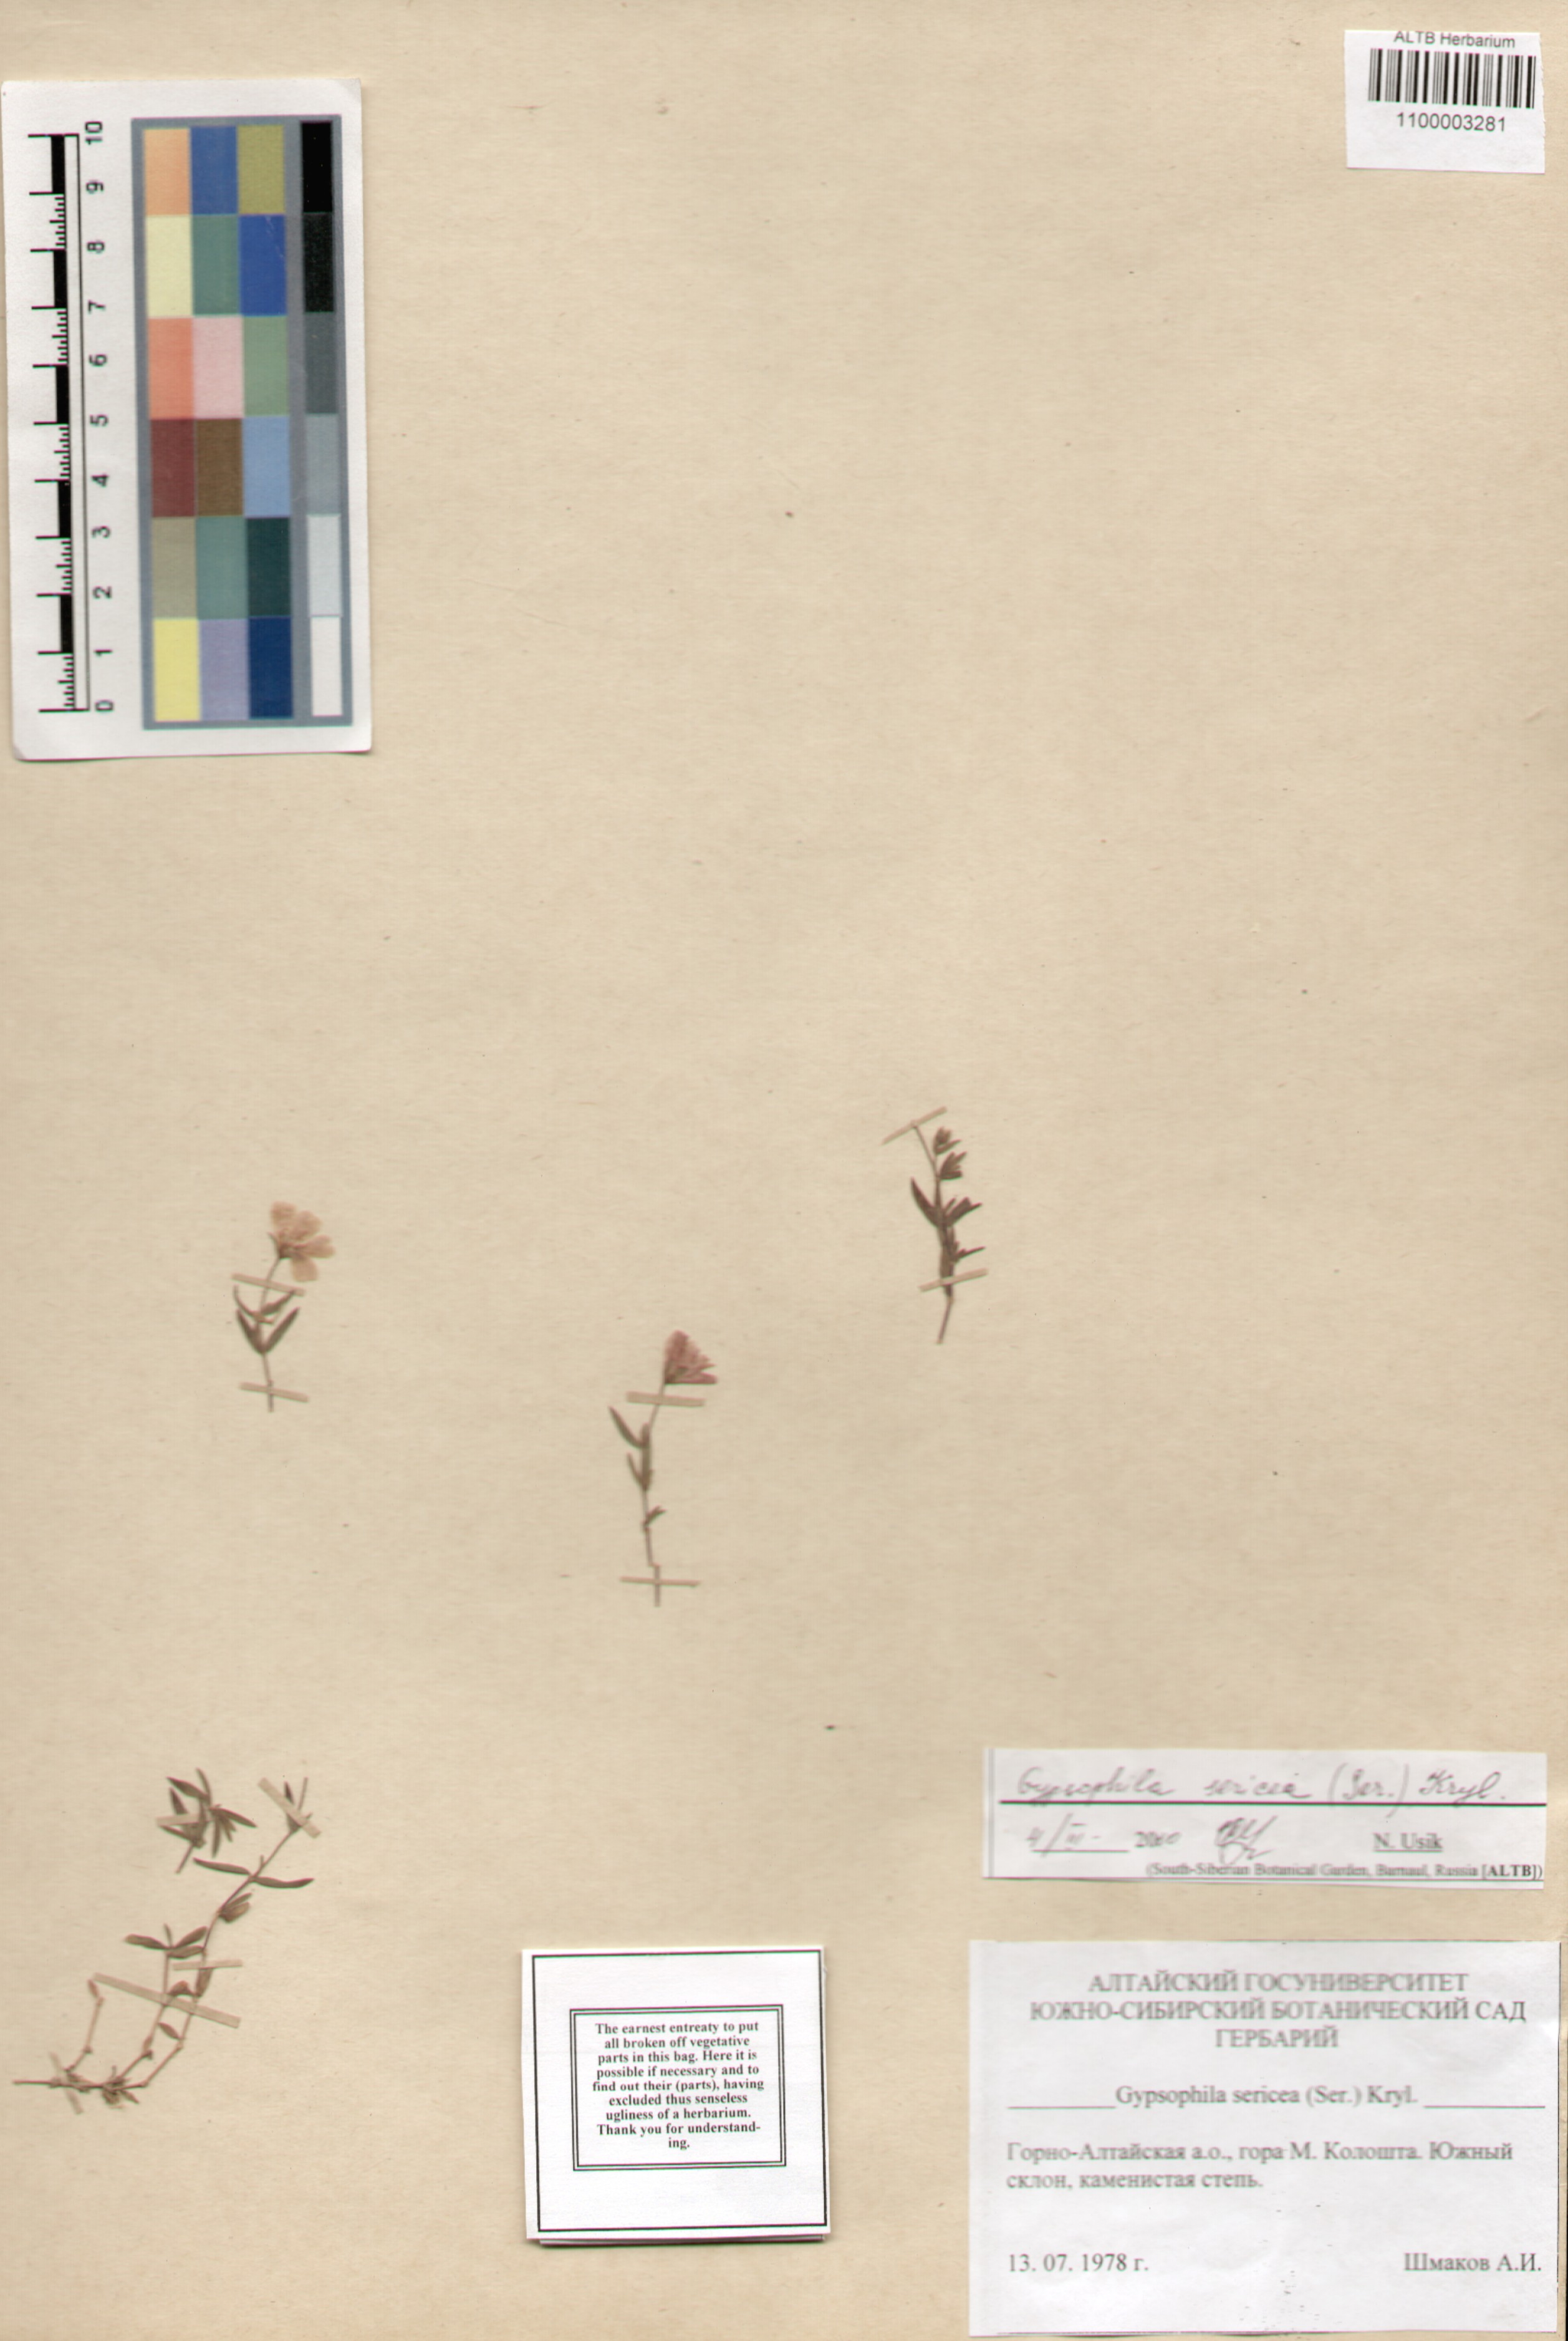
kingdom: Plantae
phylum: Tracheophyta
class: Magnoliopsida
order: Caryophyllales
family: Caryophyllaceae
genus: Heterochroa
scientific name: Heterochroa petraea
